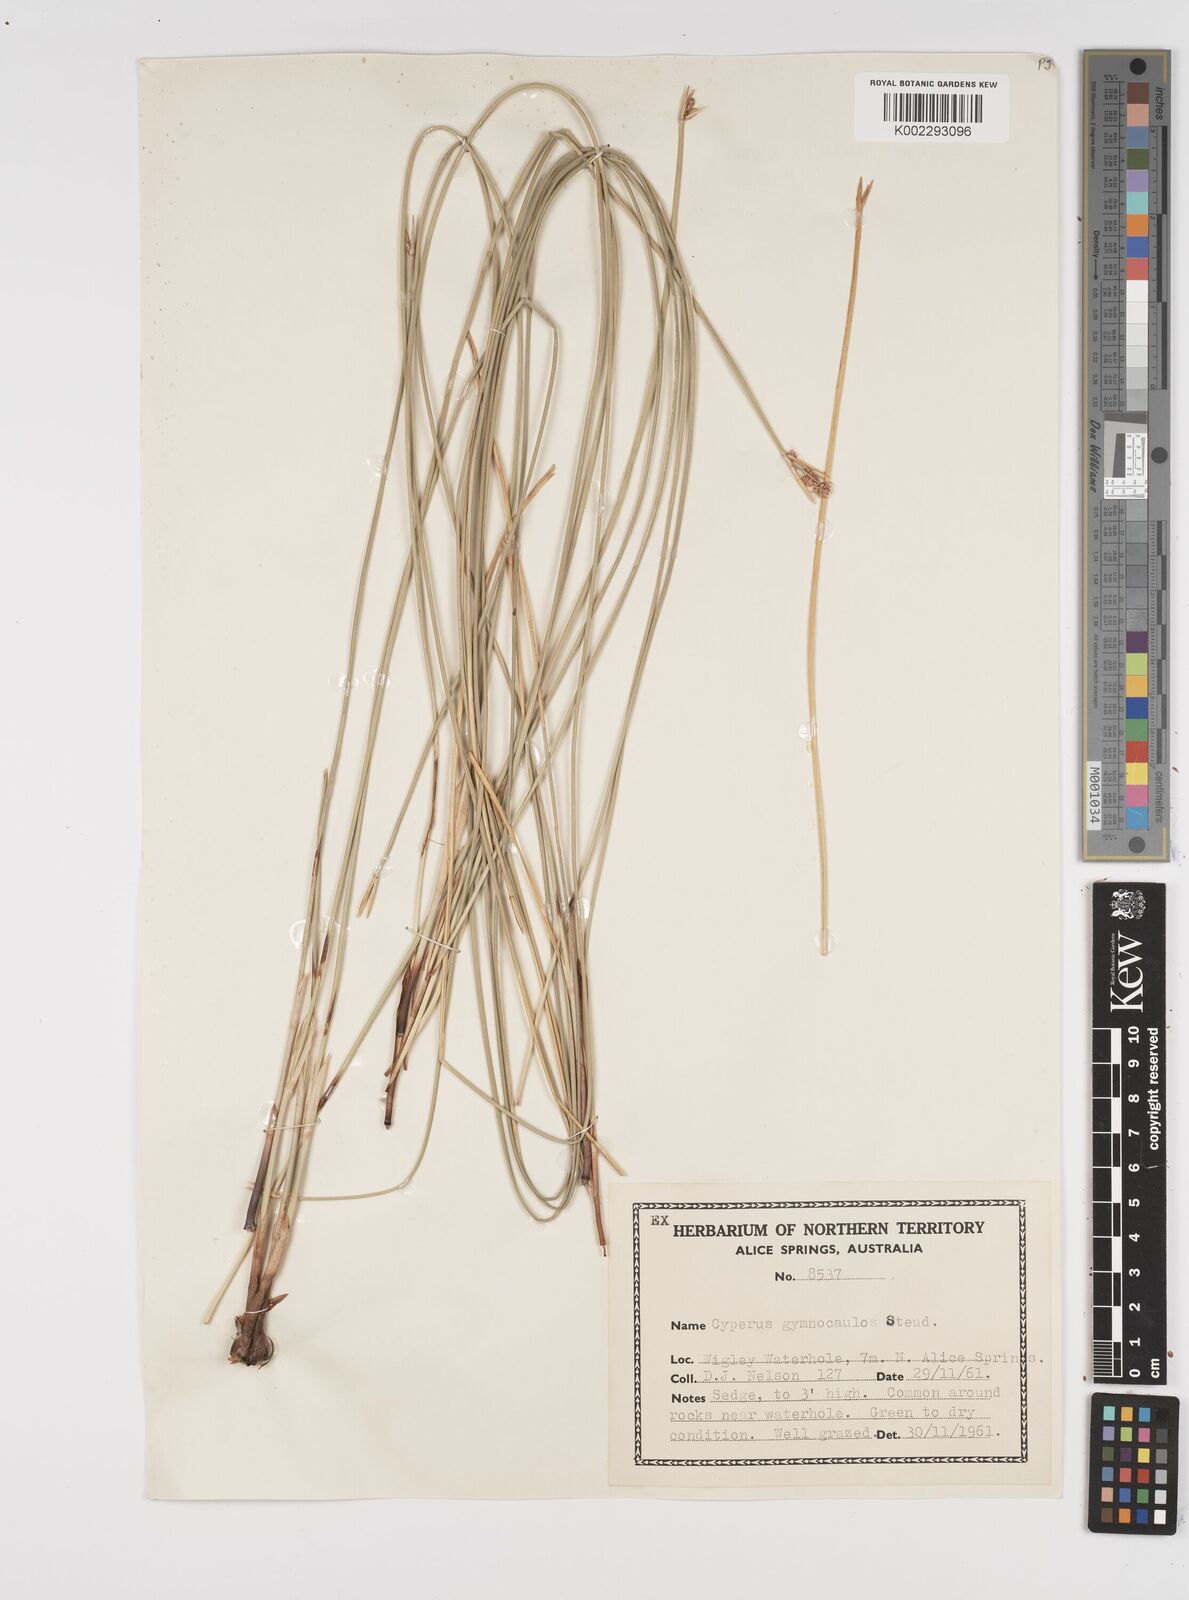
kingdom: Plantae
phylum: Tracheophyta
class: Liliopsida
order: Poales
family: Cyperaceae
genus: Cyperus
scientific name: Cyperus gymnocaulos
